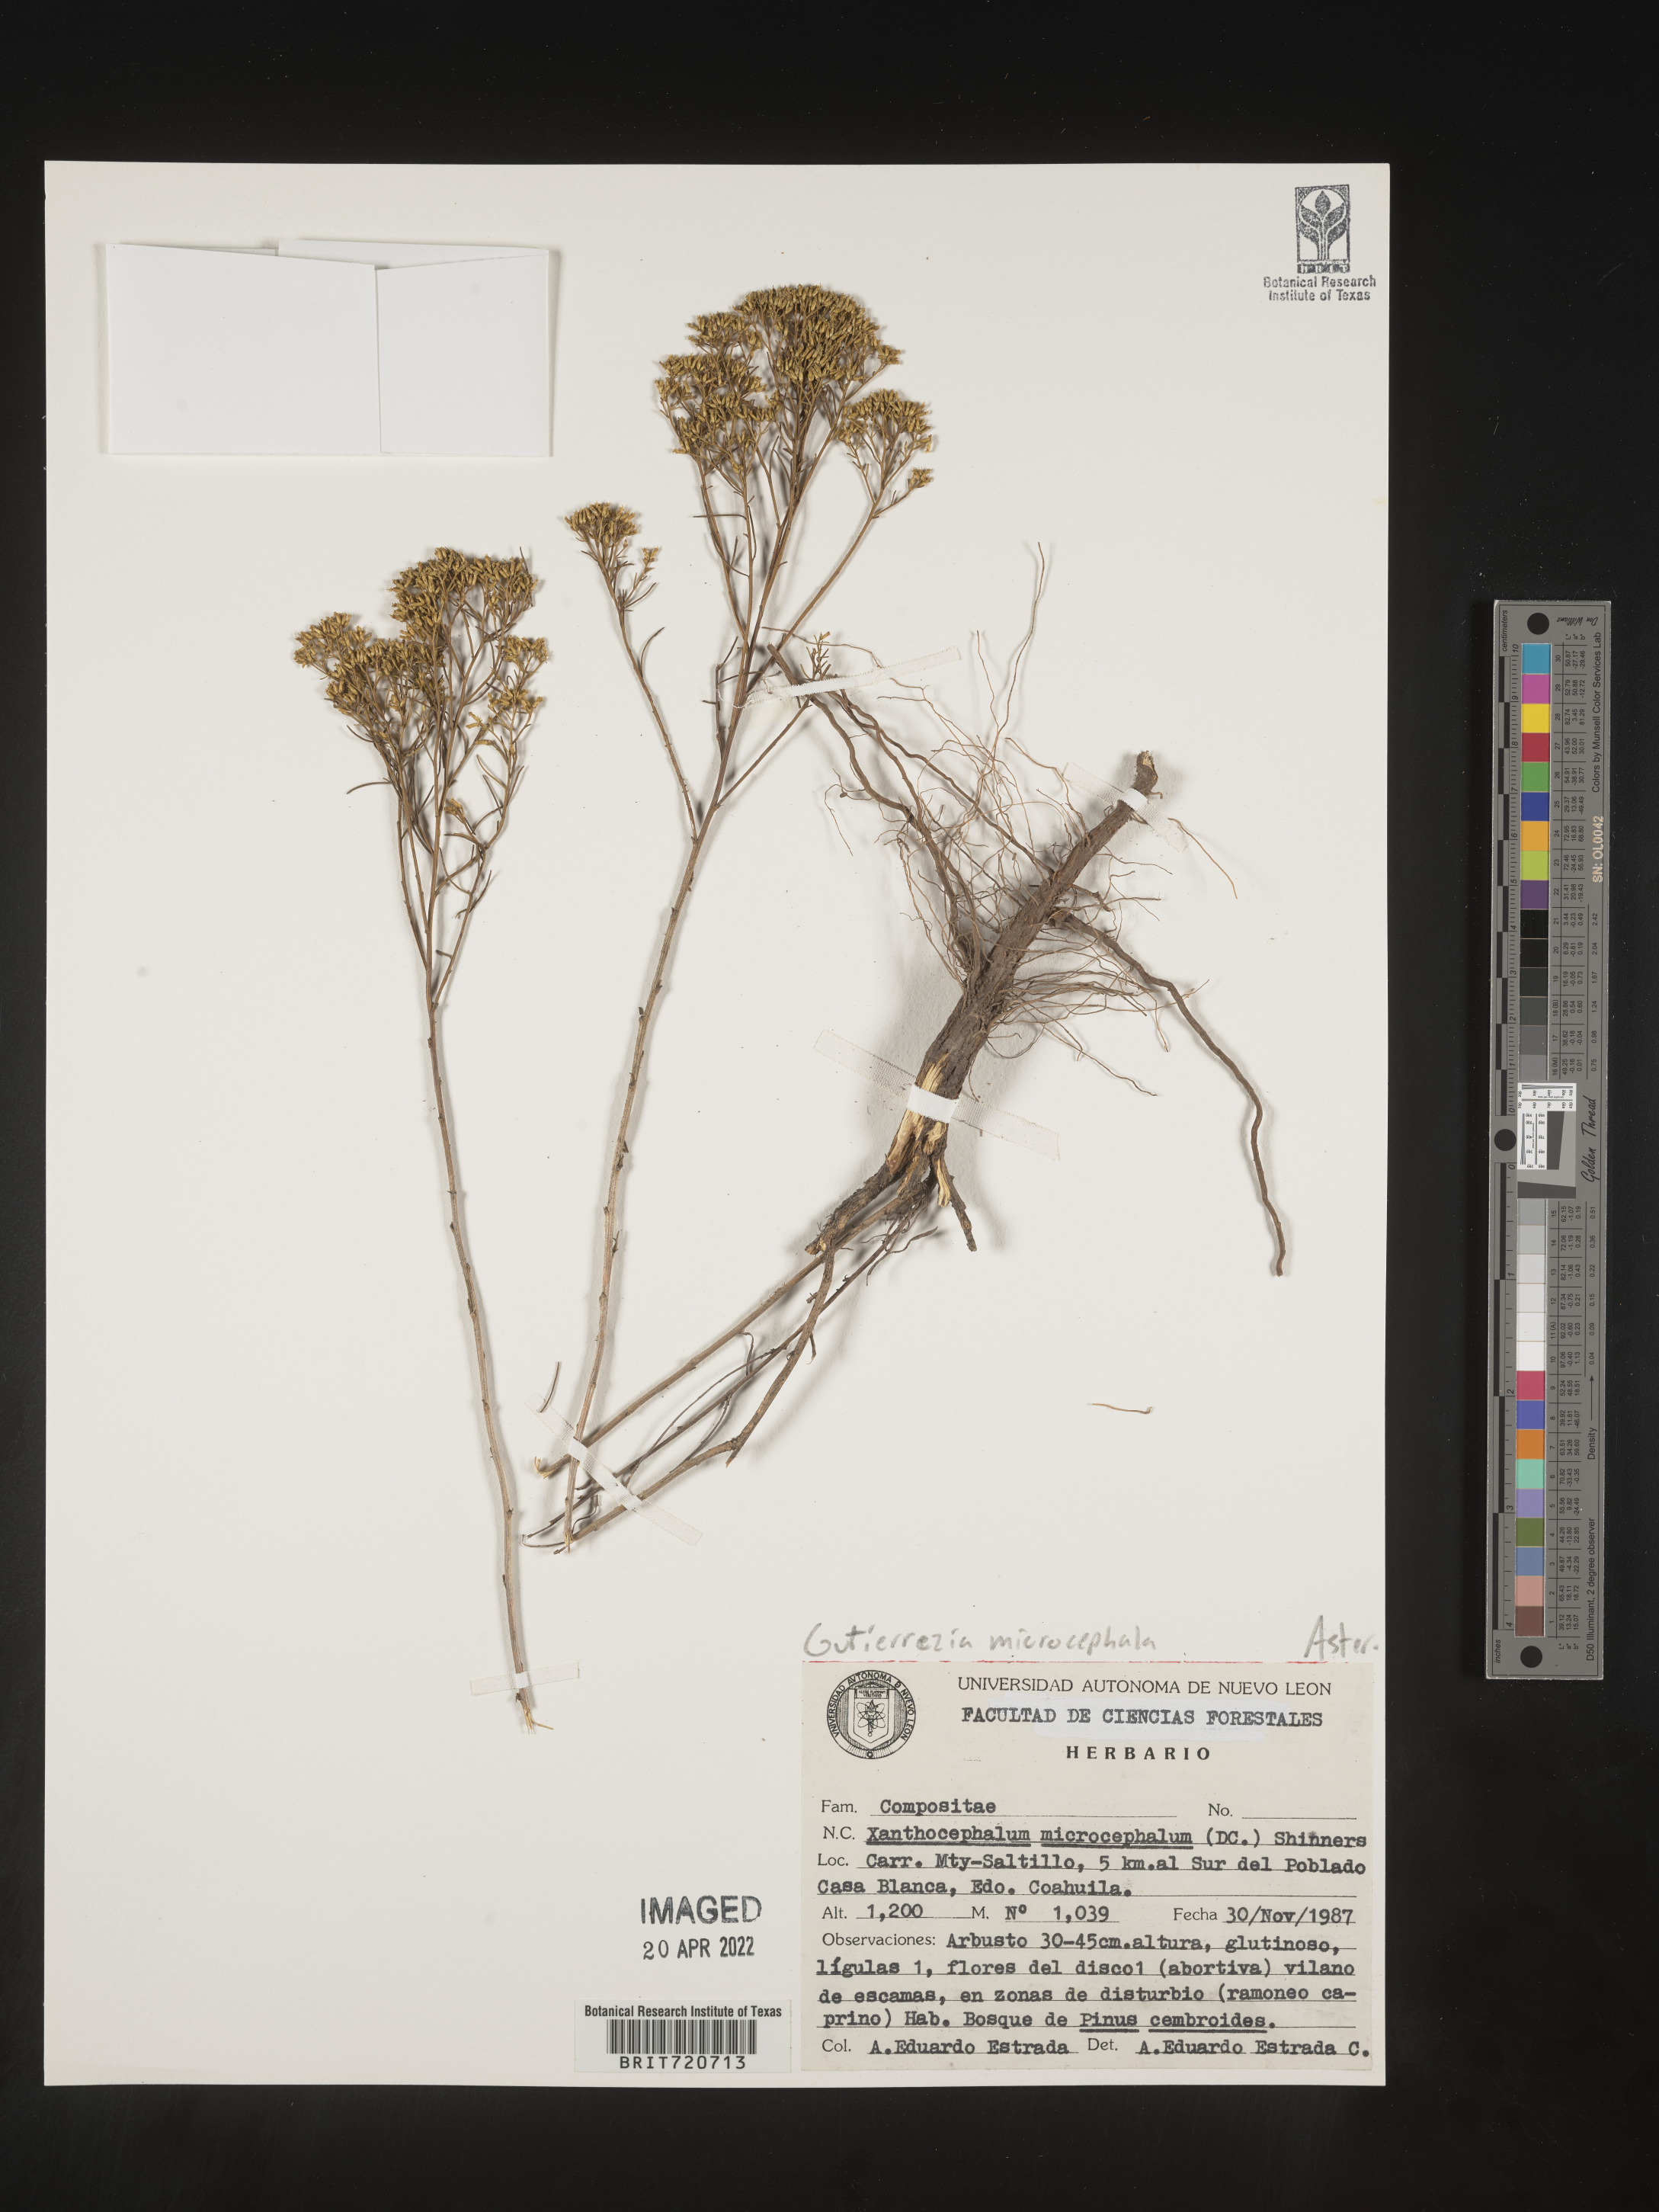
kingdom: Plantae
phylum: Tracheophyta
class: Magnoliopsida
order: Asterales
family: Asteraceae
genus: Gutierrezia
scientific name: Gutierrezia microcephala
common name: Thread snakeweed
